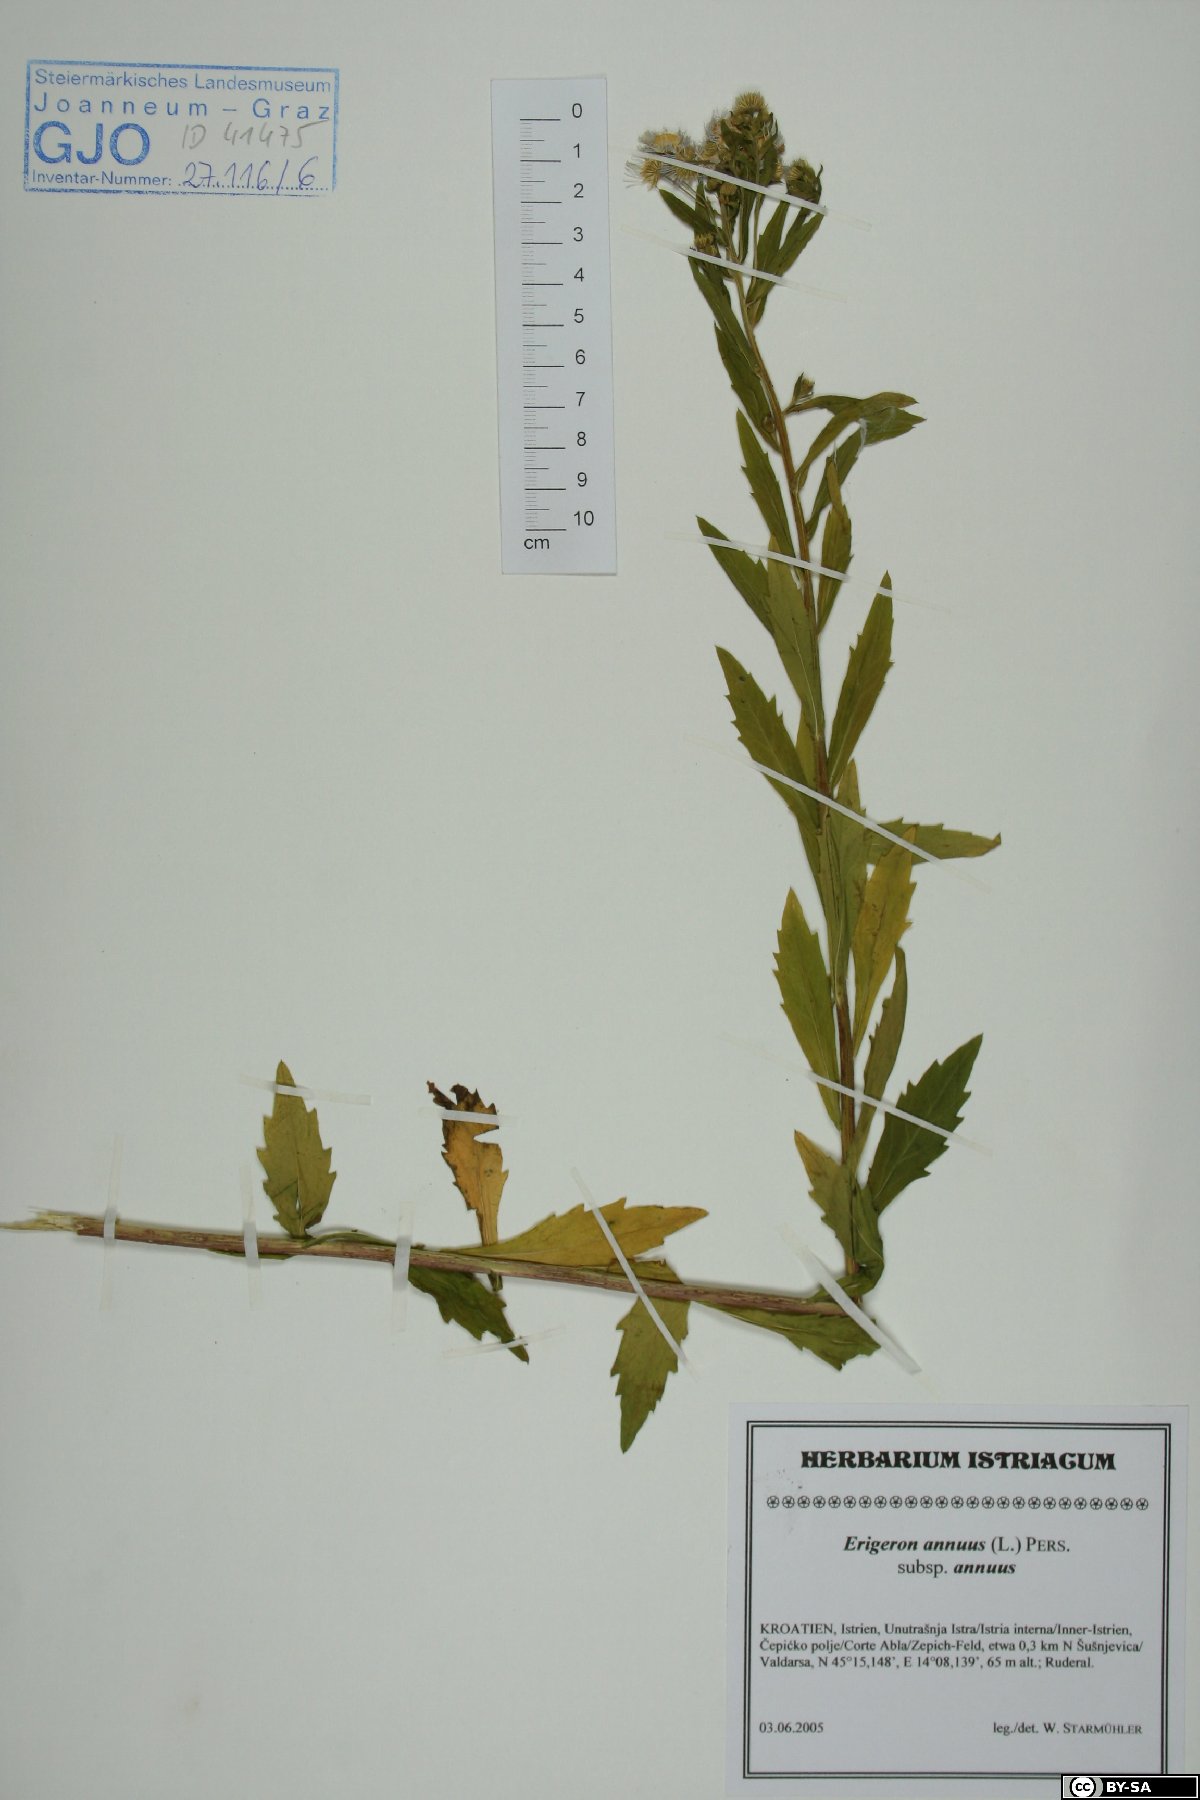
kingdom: Plantae
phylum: Tracheophyta
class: Magnoliopsida
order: Asterales
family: Asteraceae
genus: Erigeron
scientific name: Erigeron annuus
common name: Tall fleabane
